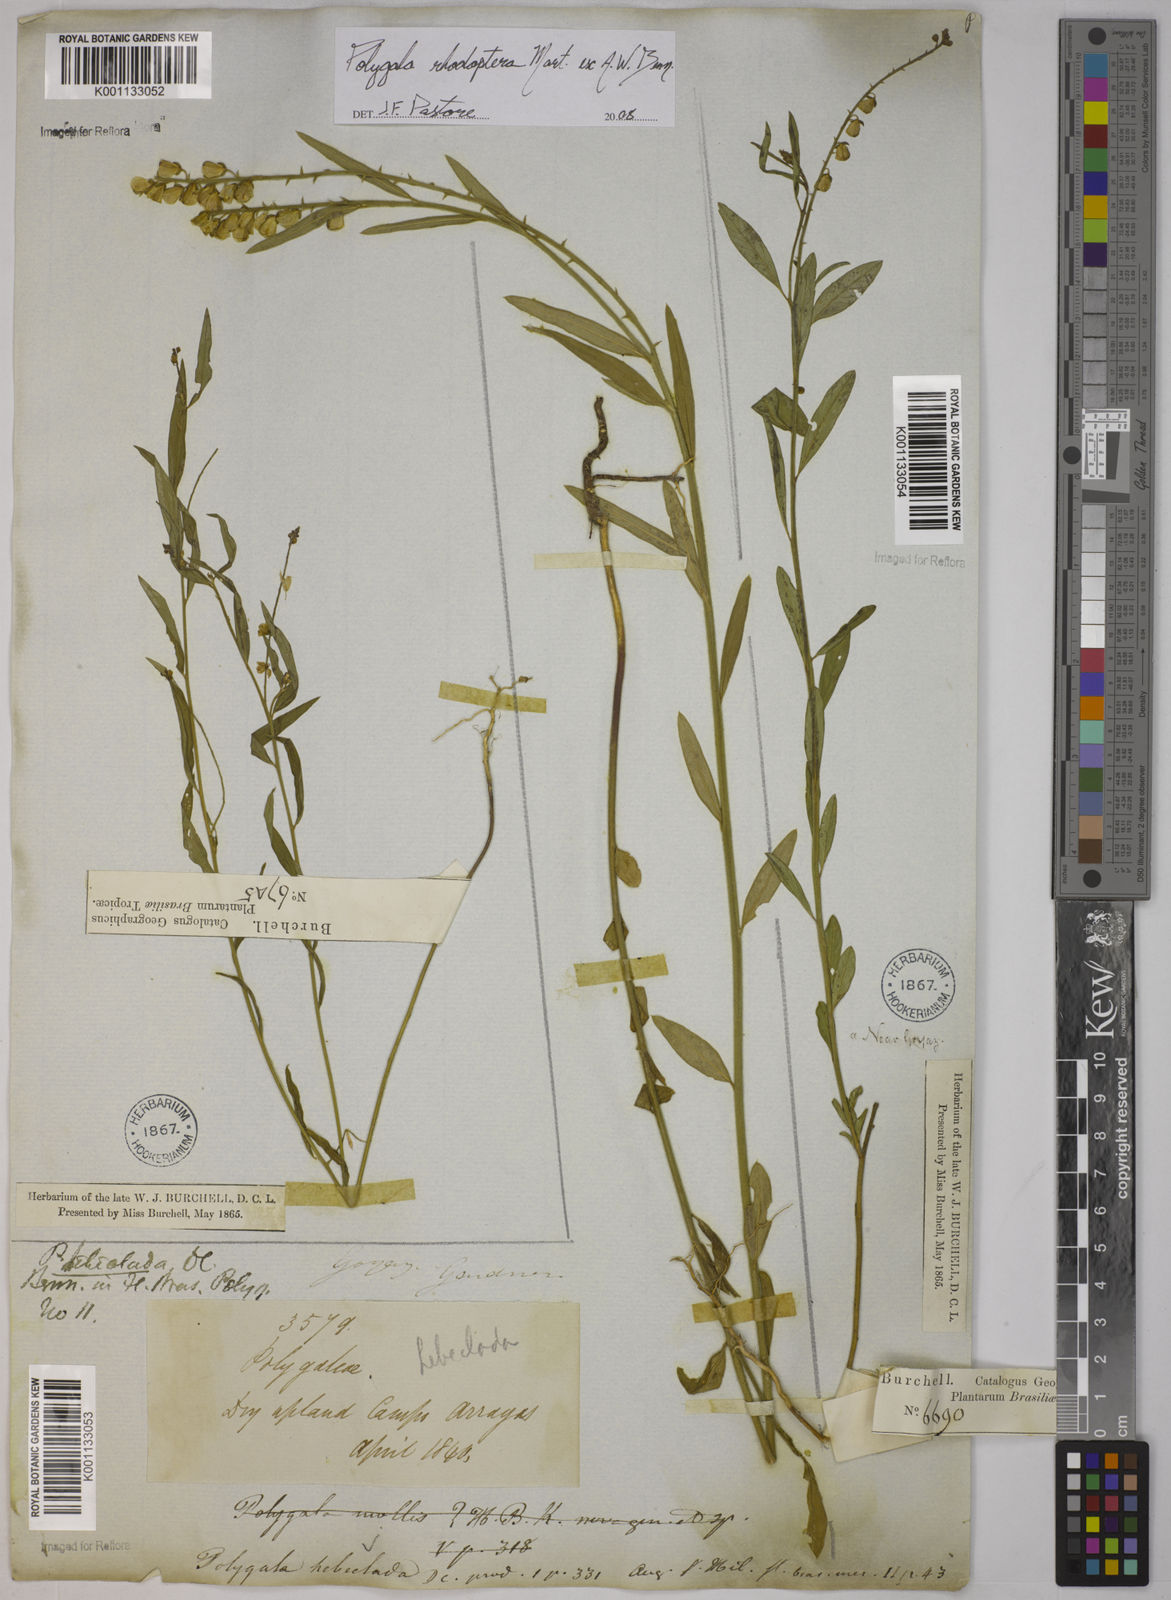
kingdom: Plantae
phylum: Tracheophyta
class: Magnoliopsida
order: Fabales
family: Polygalaceae
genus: Asemeia
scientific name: Asemeia rhodoptera
